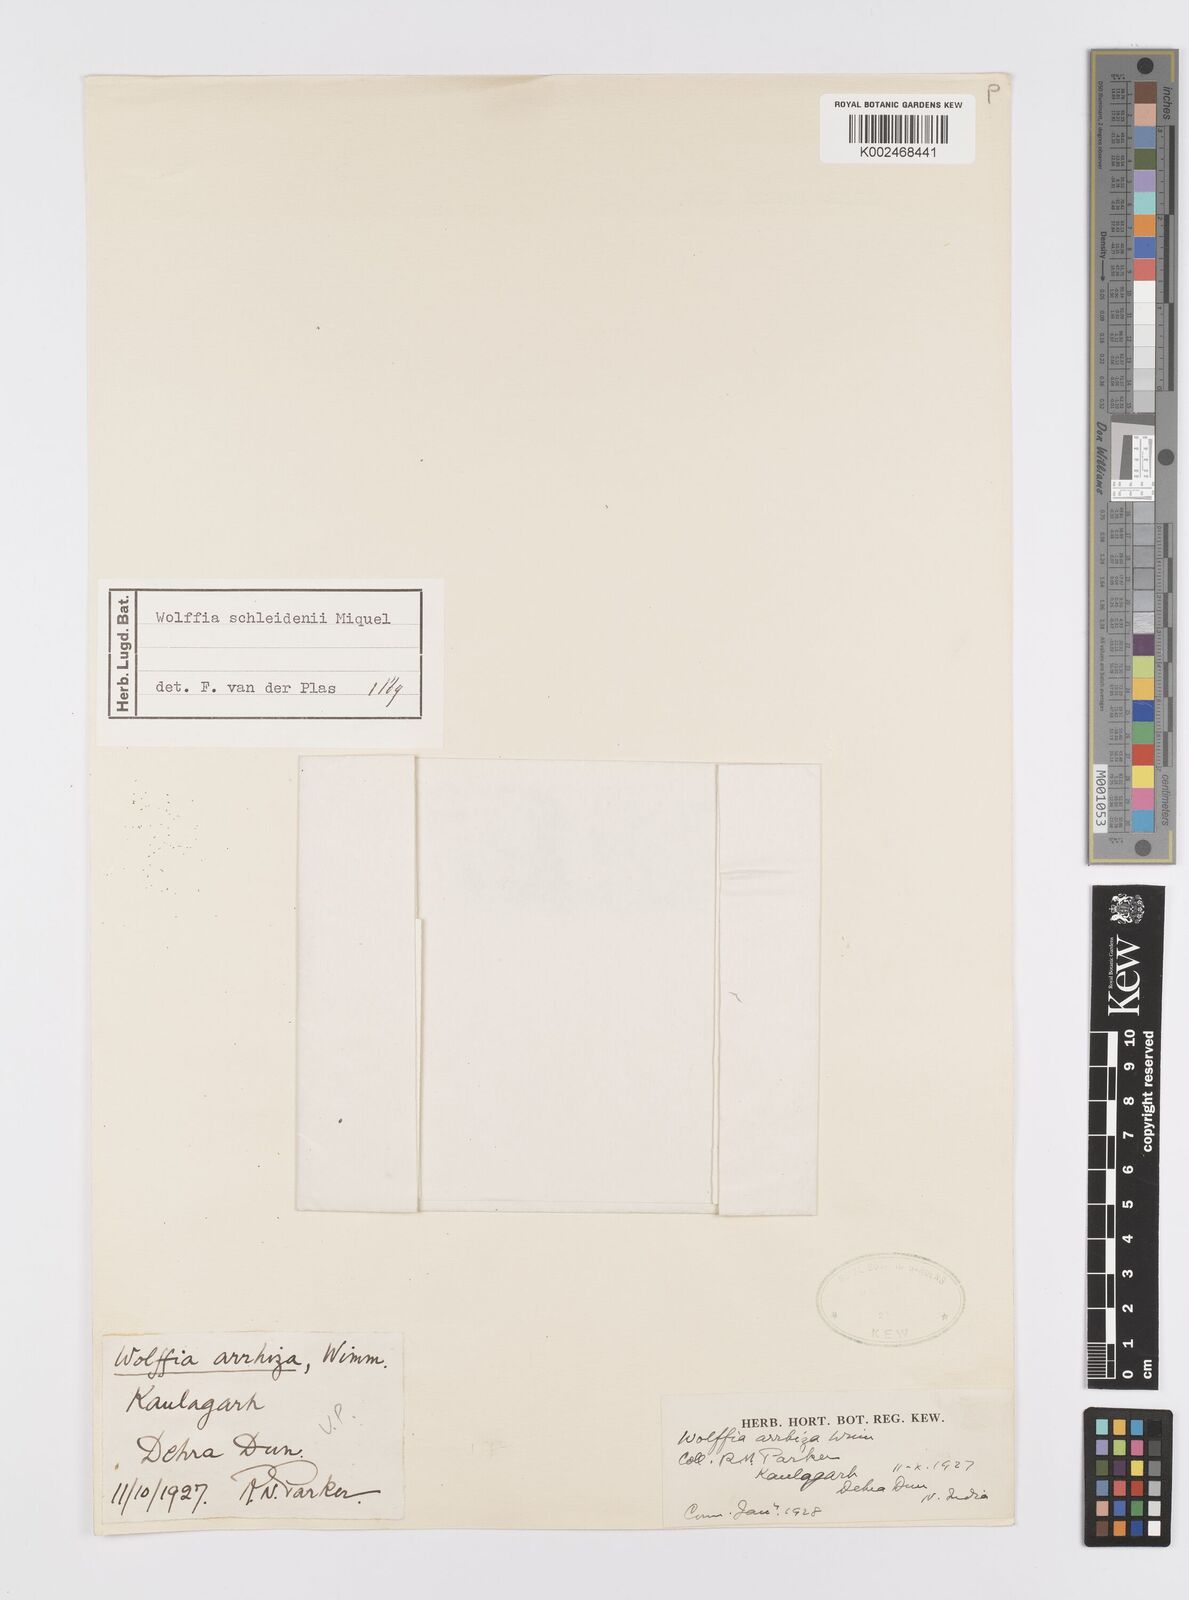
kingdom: Plantae
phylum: Tracheophyta
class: Liliopsida
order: Alismatales
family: Araceae
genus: Wolffia
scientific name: Wolffia arrhiza
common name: Rootless duckweed
